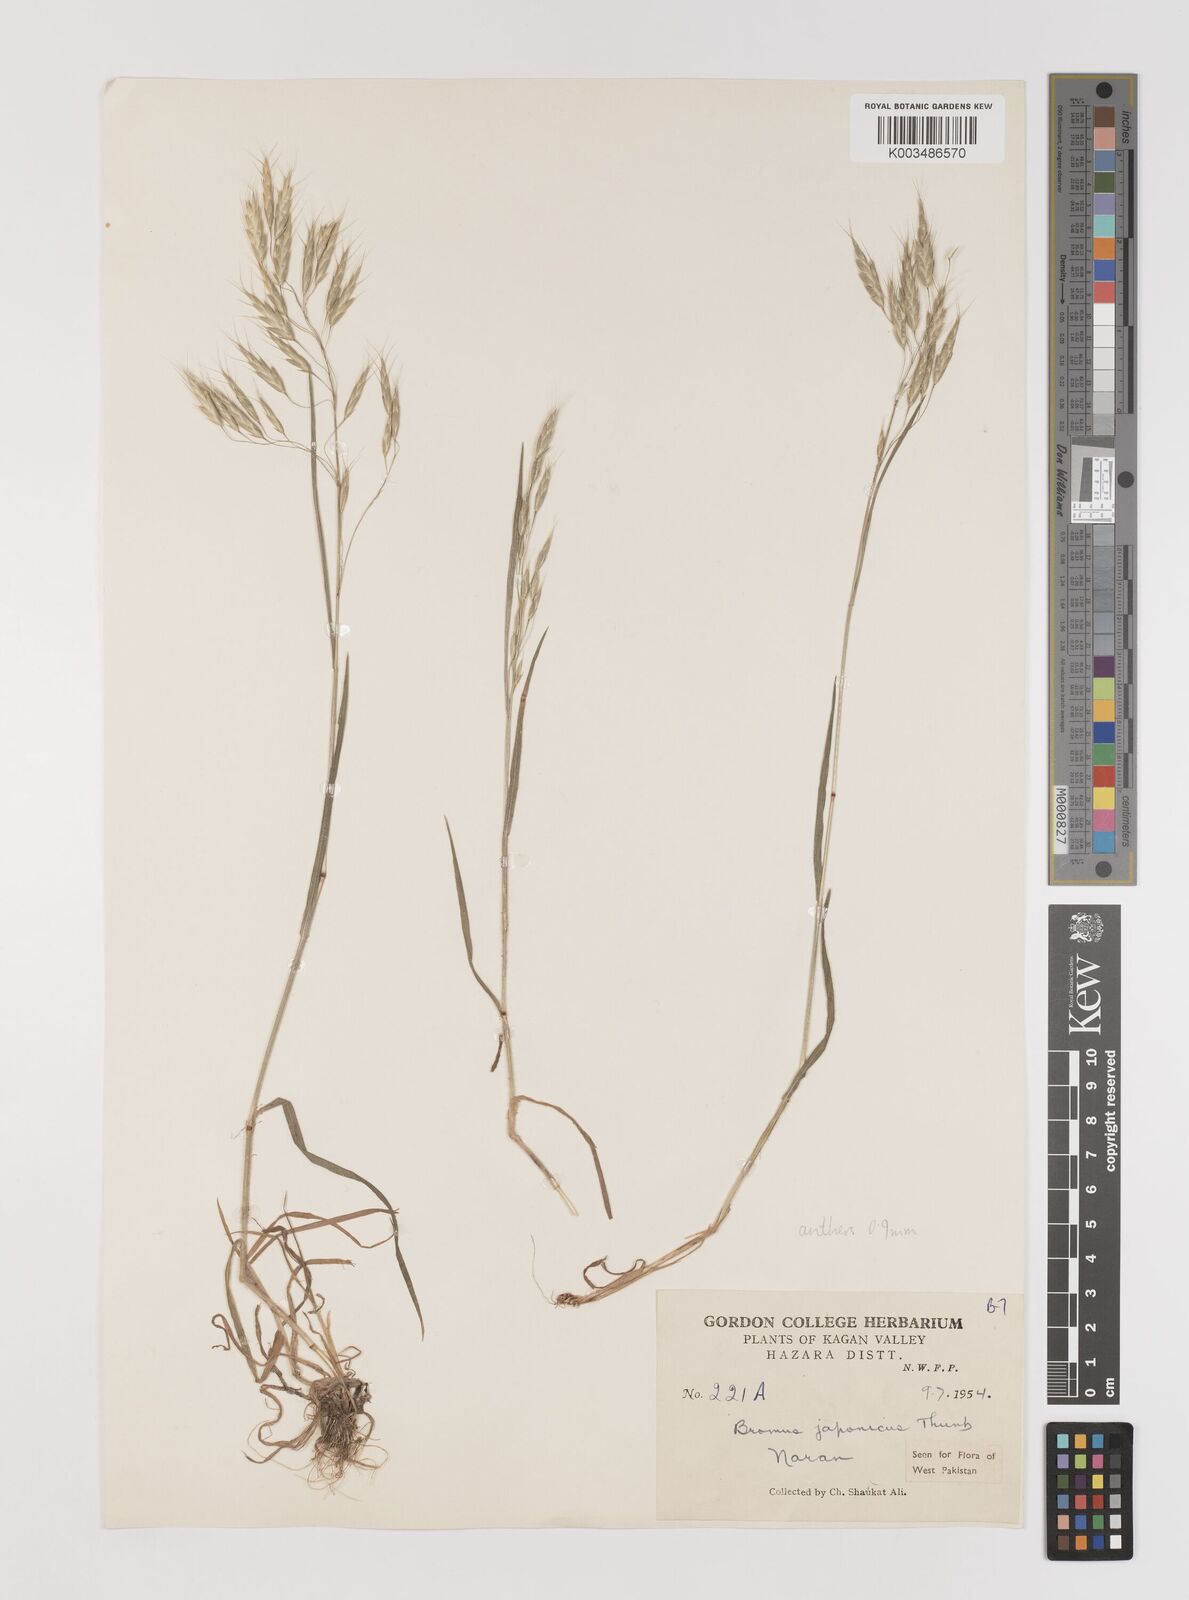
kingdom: Plantae
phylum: Tracheophyta
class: Liliopsida
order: Poales
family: Poaceae
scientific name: Poaceae
